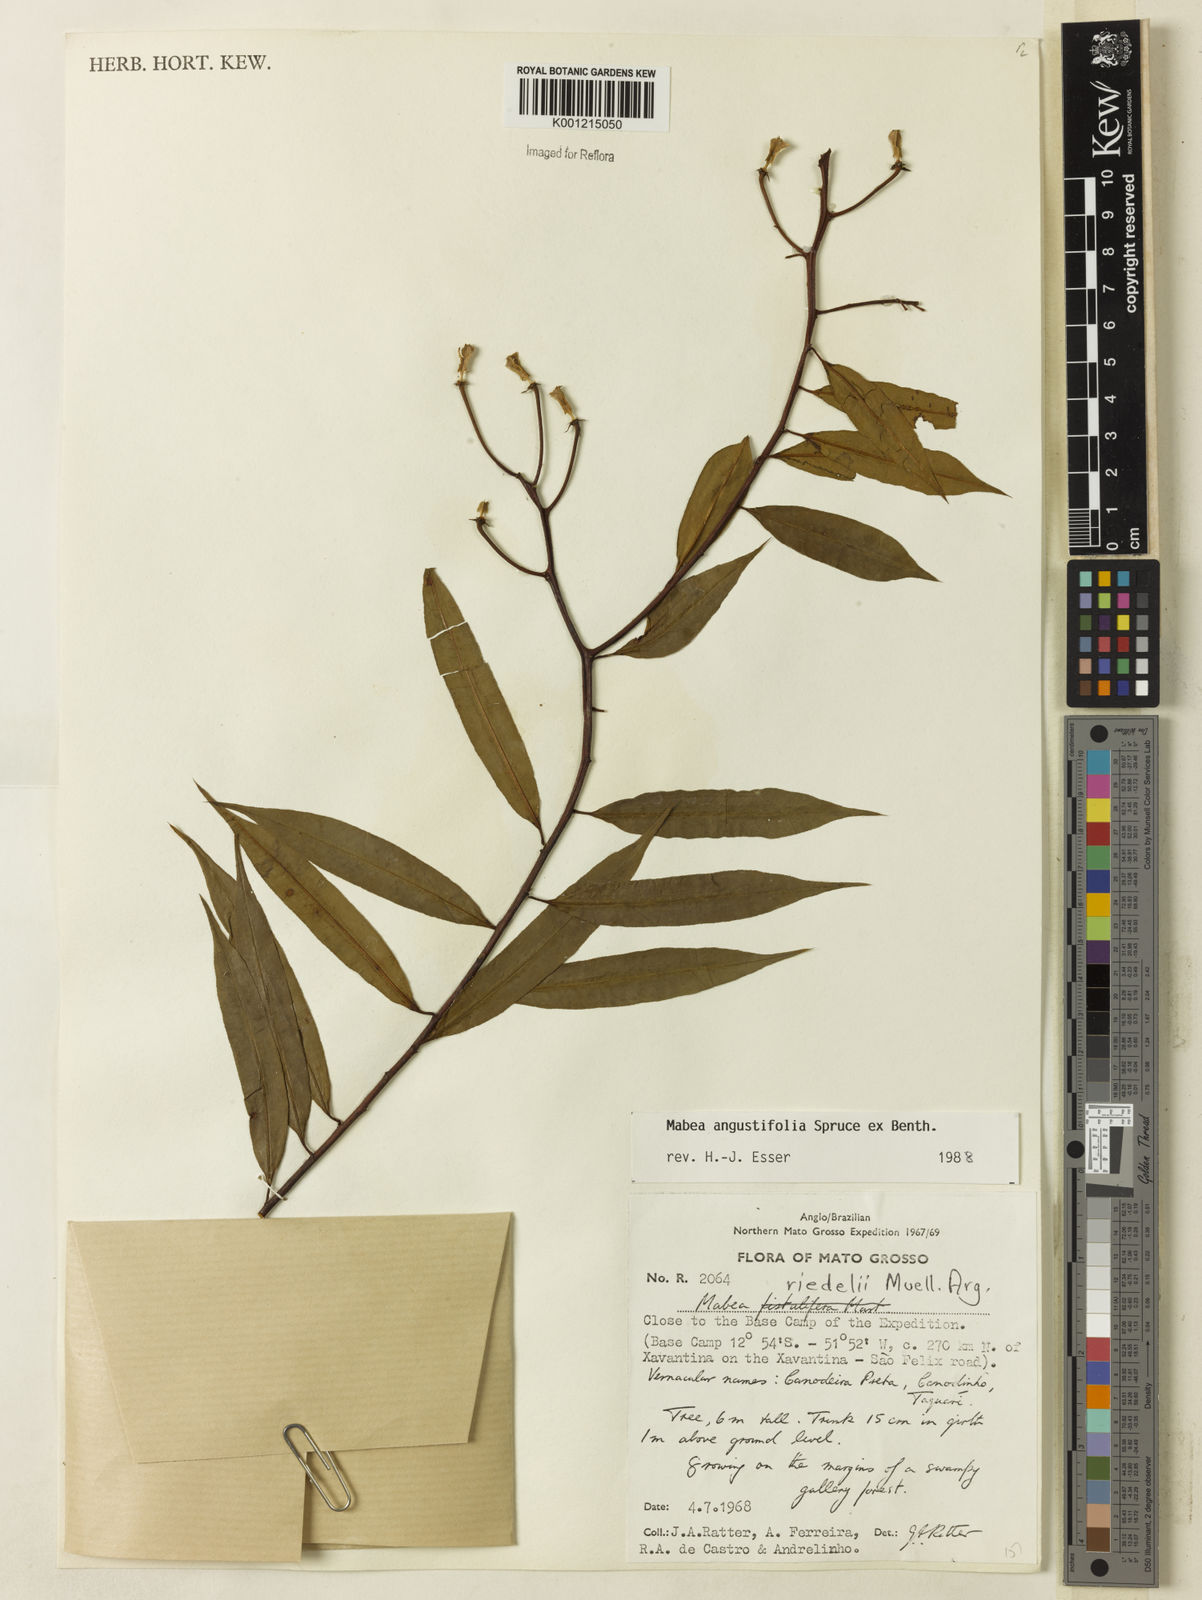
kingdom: Plantae
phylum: Tracheophyta
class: Magnoliopsida
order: Malpighiales
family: Euphorbiaceae
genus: Mabea
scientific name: Mabea
